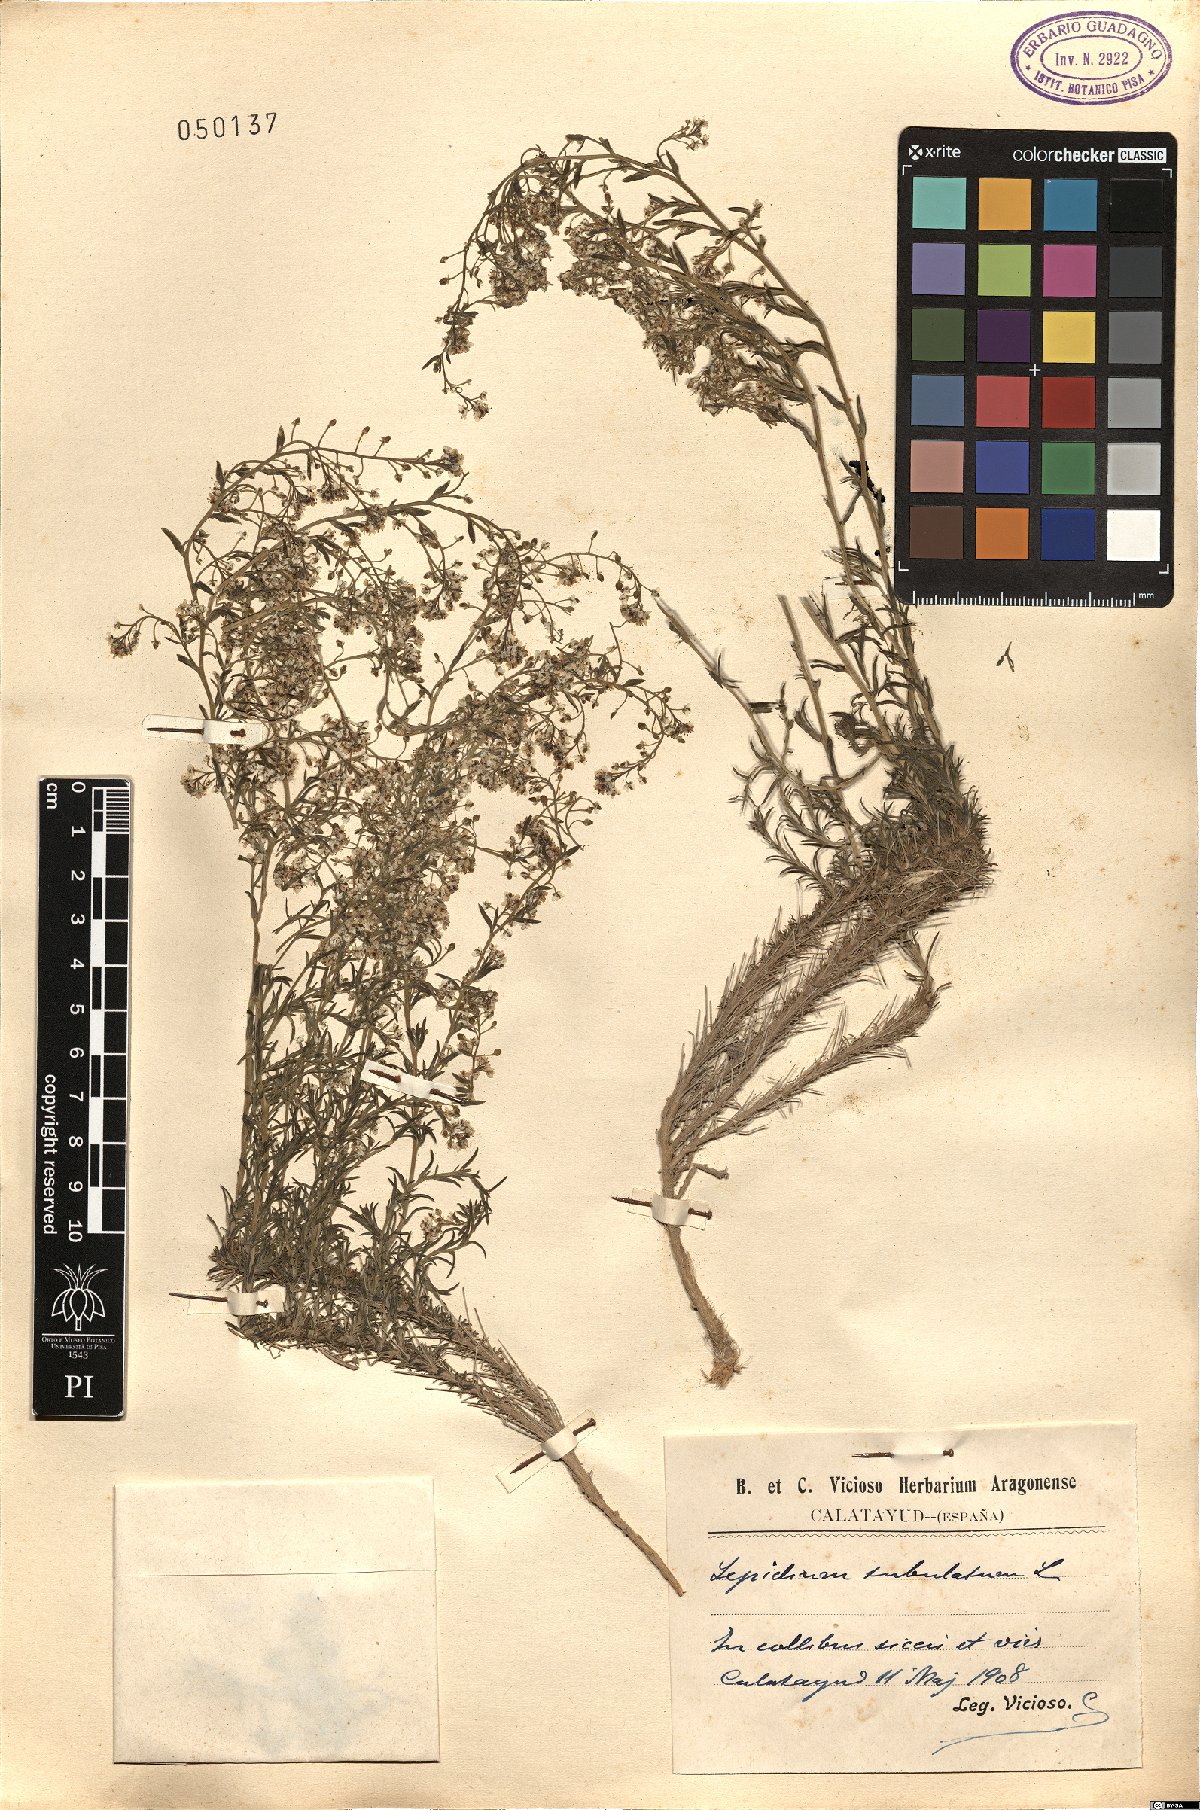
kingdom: Plantae
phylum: Tracheophyta
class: Magnoliopsida
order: Brassicales
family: Brassicaceae
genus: Lepidium
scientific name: Lepidium subulatum
